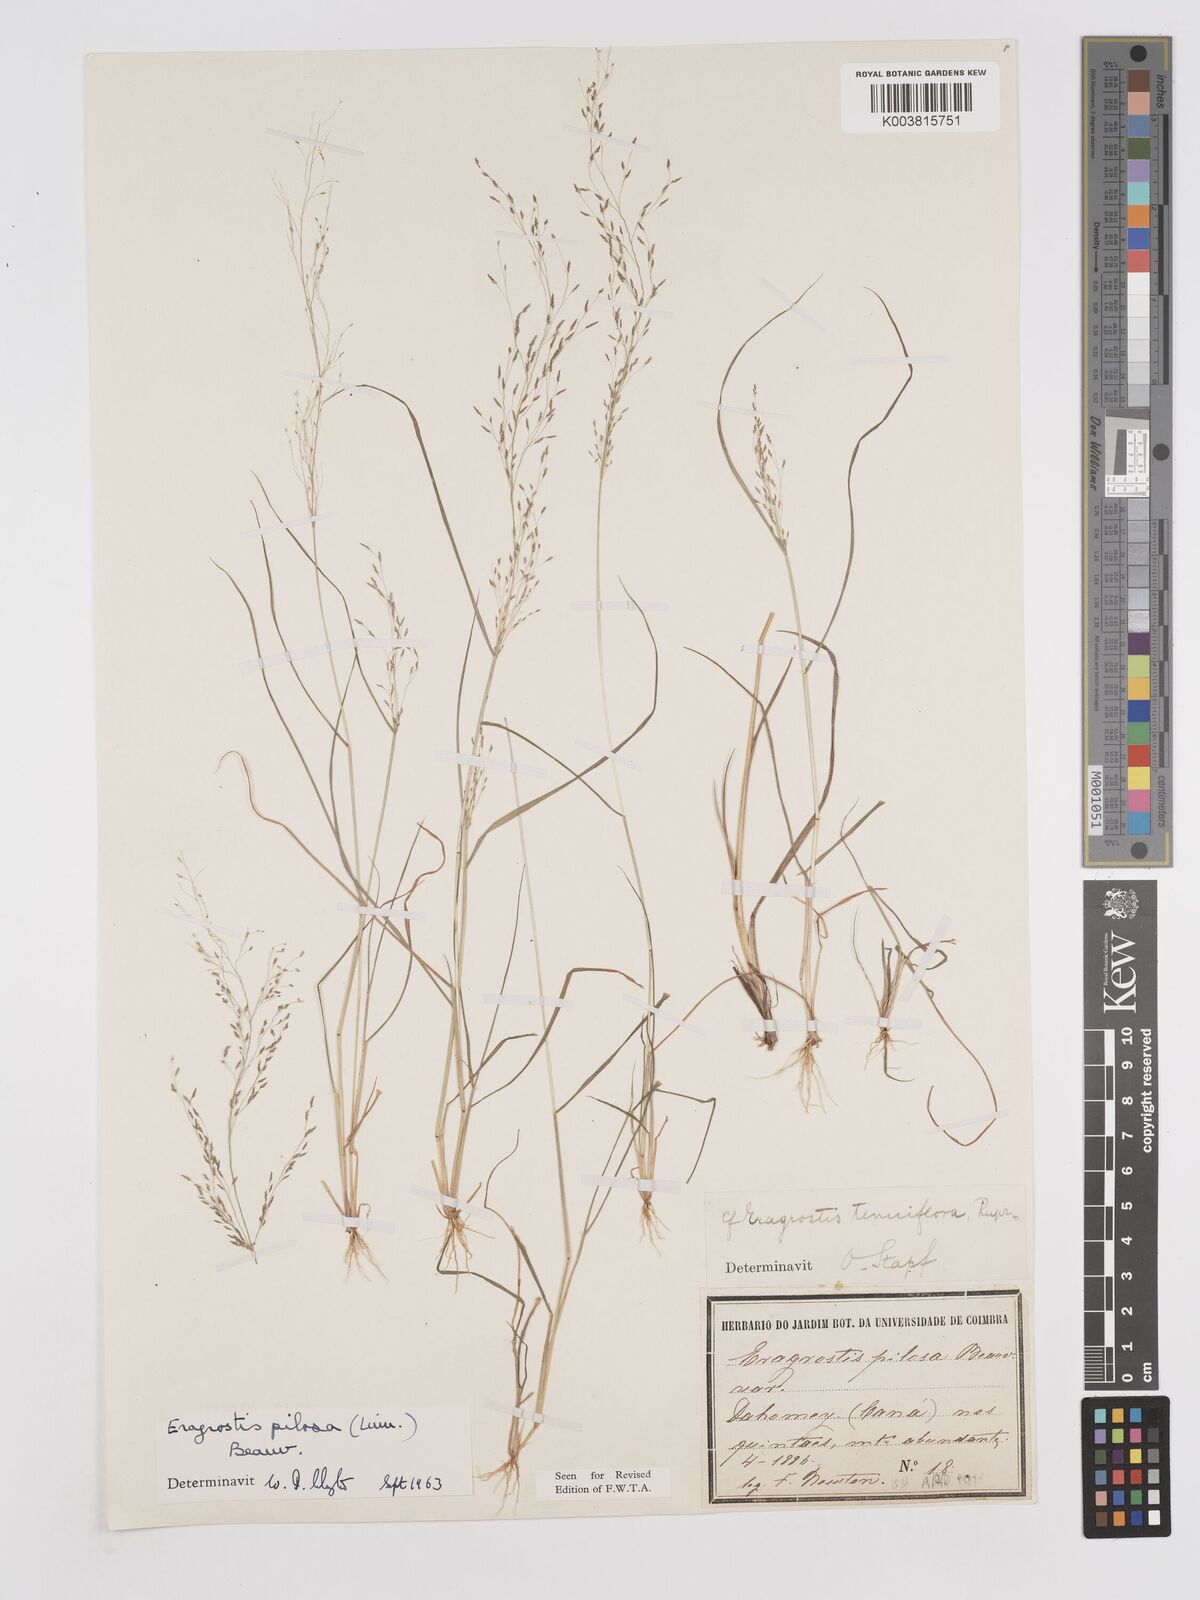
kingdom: Plantae
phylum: Tracheophyta
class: Liliopsida
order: Poales
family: Poaceae
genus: Eragrostis
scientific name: Eragrostis pilosa
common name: Indian lovegrass
